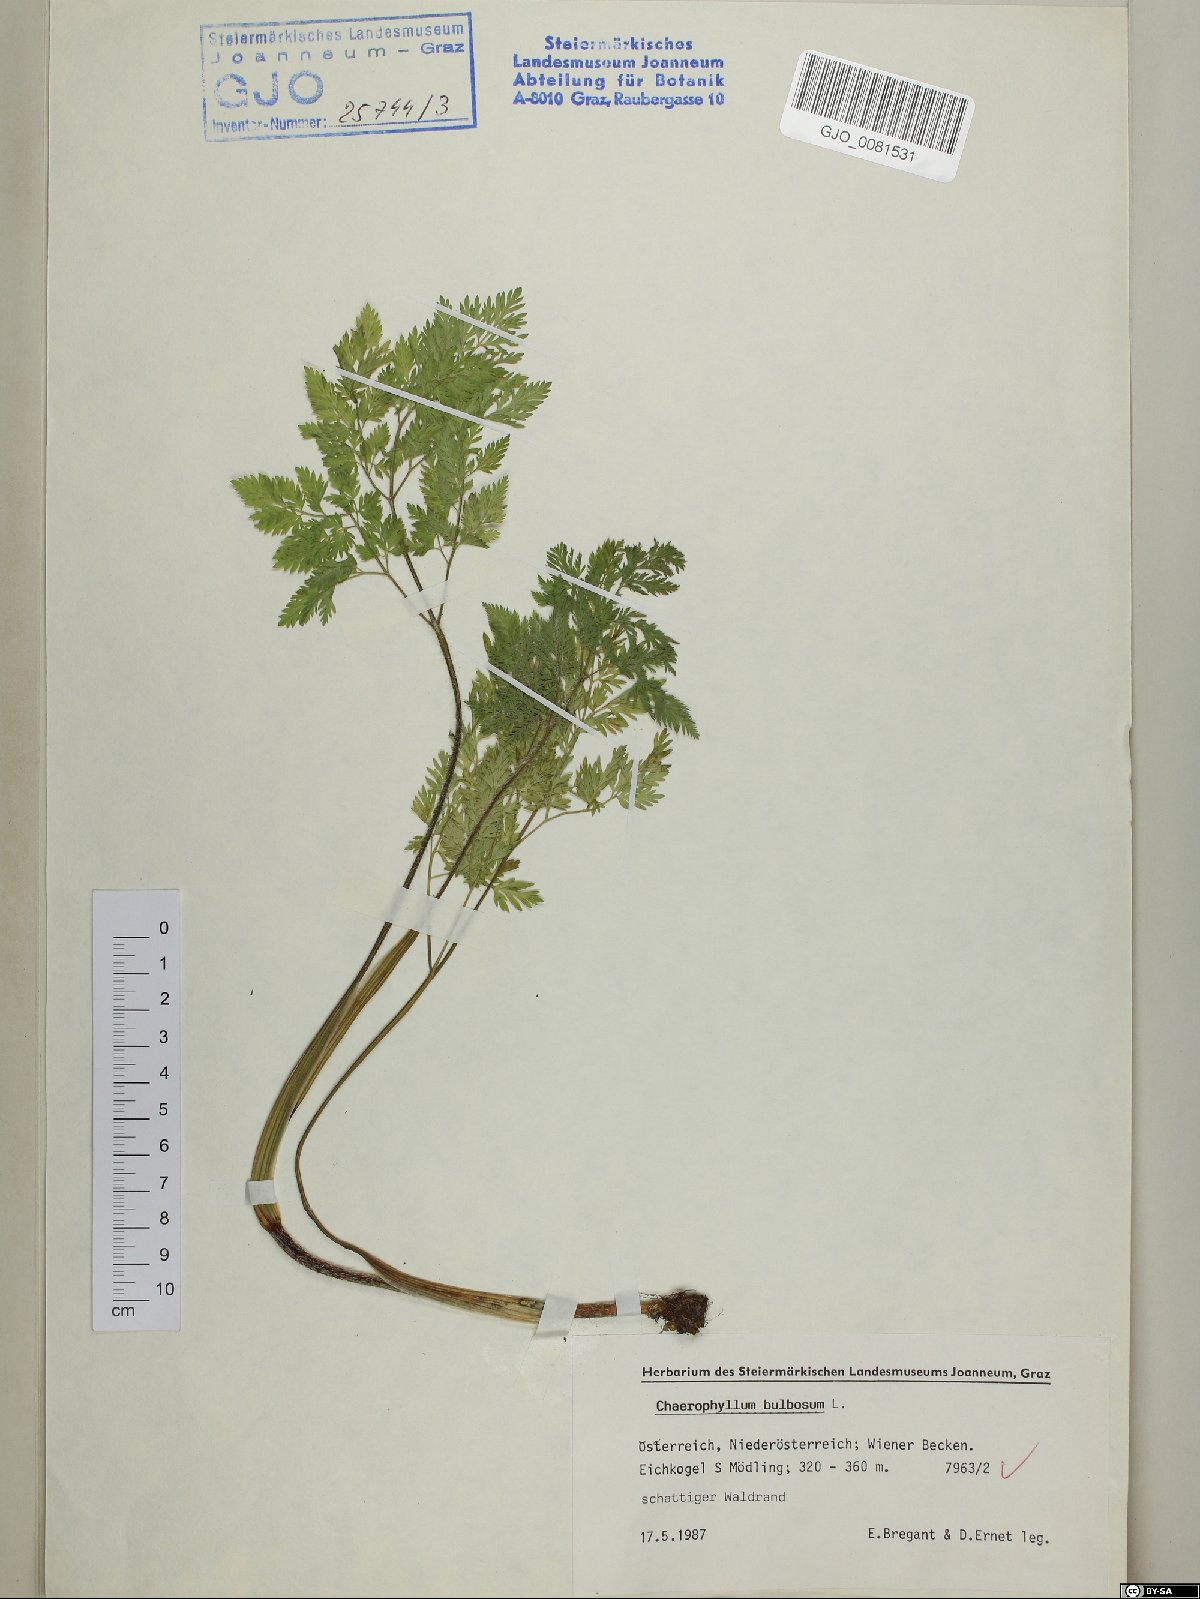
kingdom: Plantae
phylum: Tracheophyta
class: Magnoliopsida
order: Apiales
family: Apiaceae
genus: Chaerophyllum
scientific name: Chaerophyllum bulbosum
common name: Bulbous chervil
